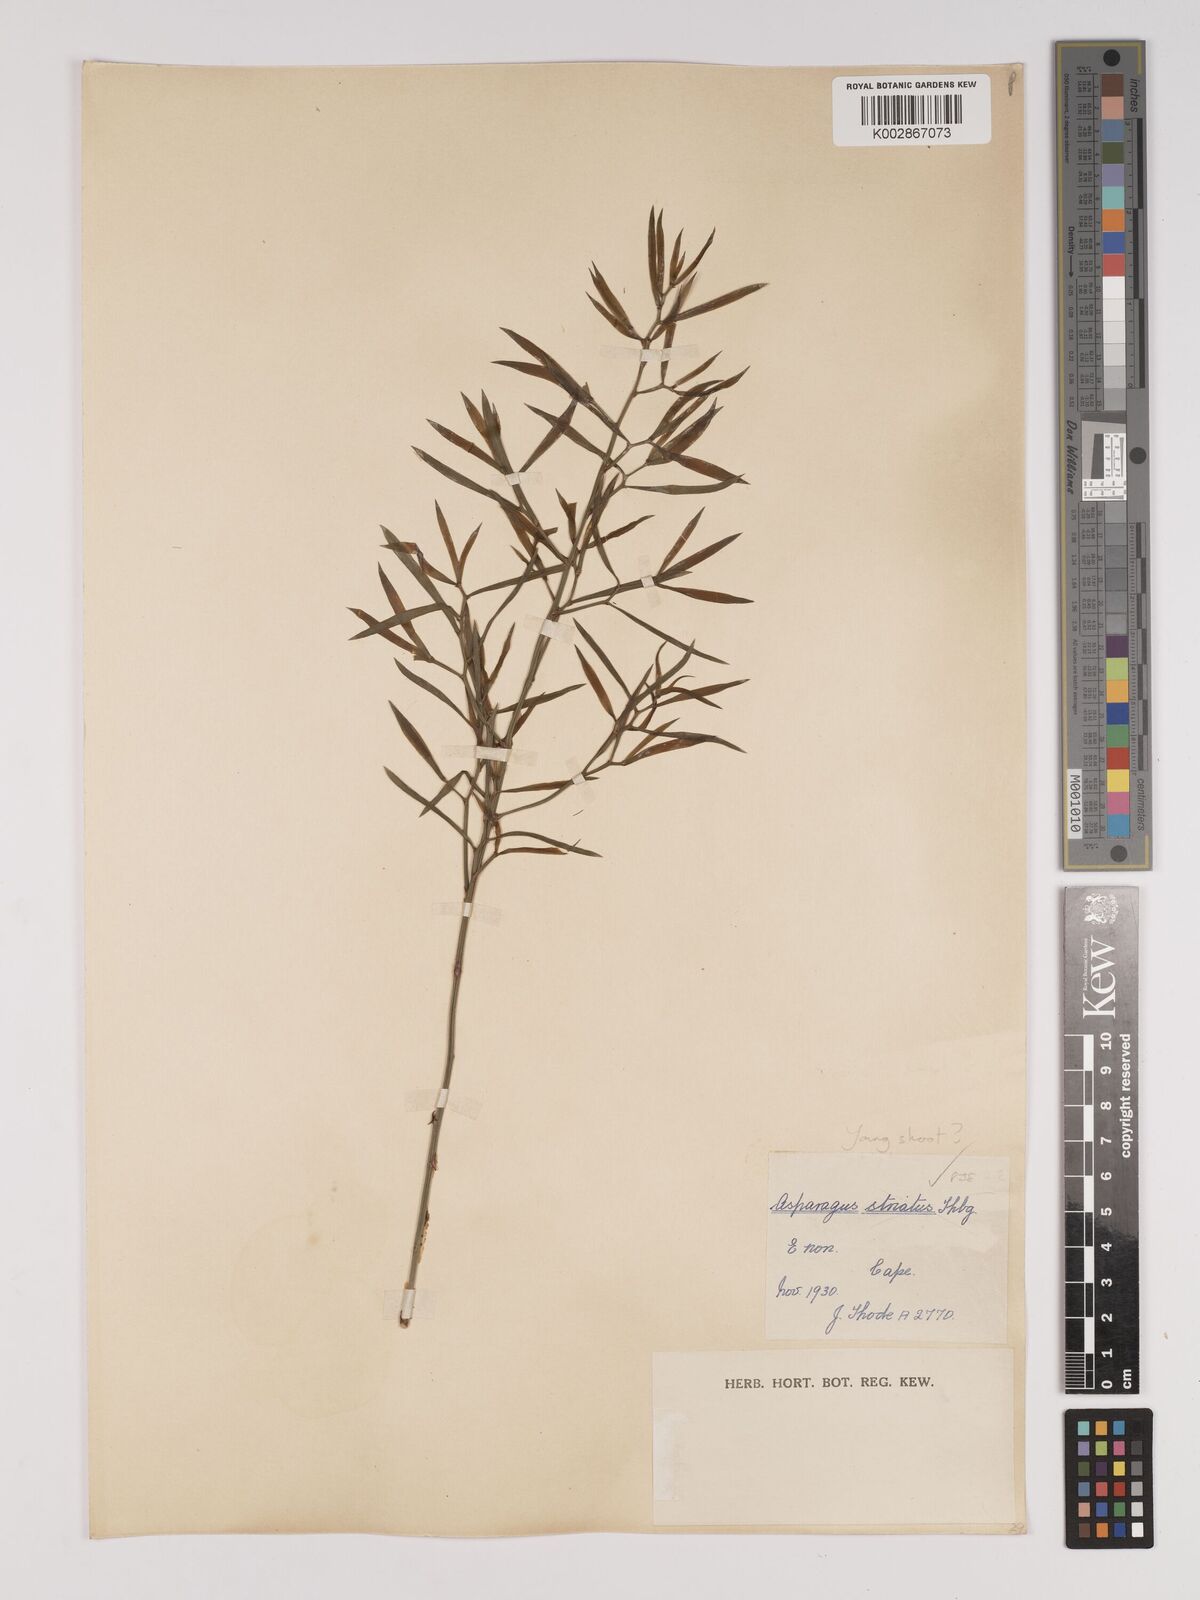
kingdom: Plantae
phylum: Tracheophyta
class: Liliopsida
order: Asparagales
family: Asparagaceae
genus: Asparagus
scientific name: Asparagus striatus
